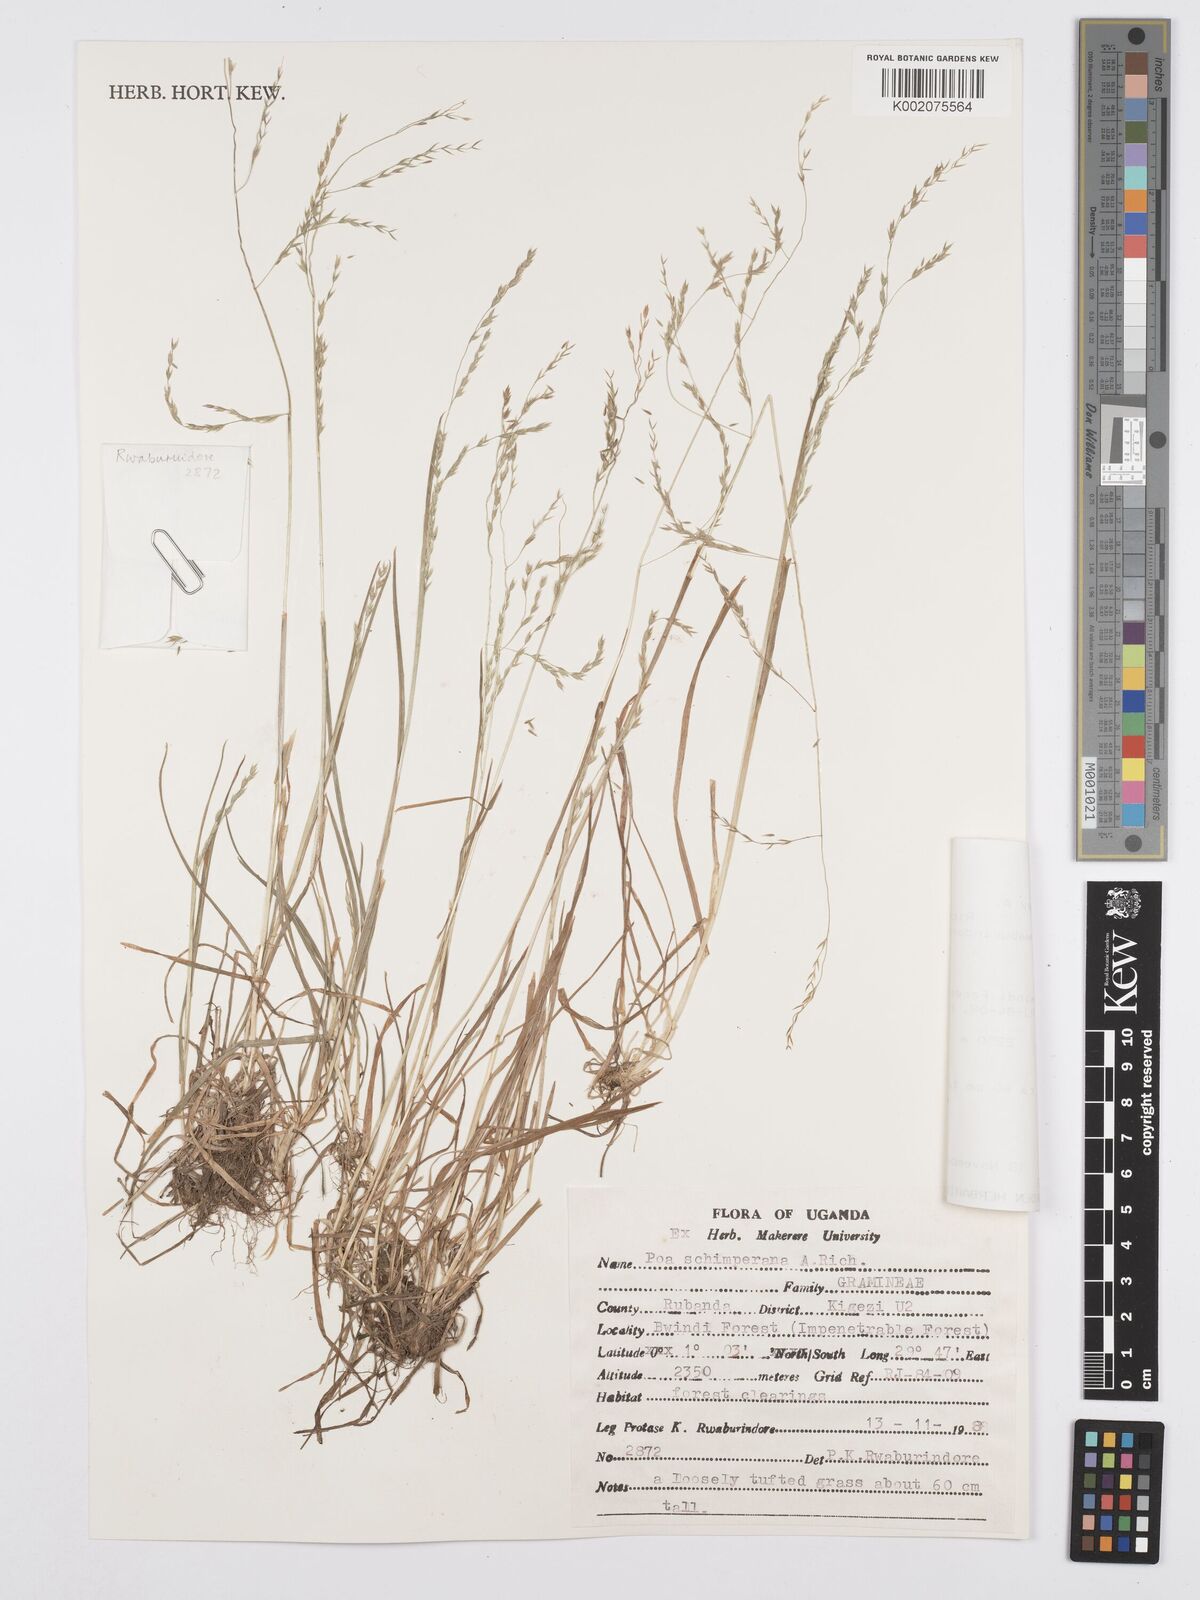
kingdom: Plantae
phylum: Tracheophyta
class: Liliopsida
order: Poales
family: Poaceae
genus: Poa
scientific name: Poa schimperiana
